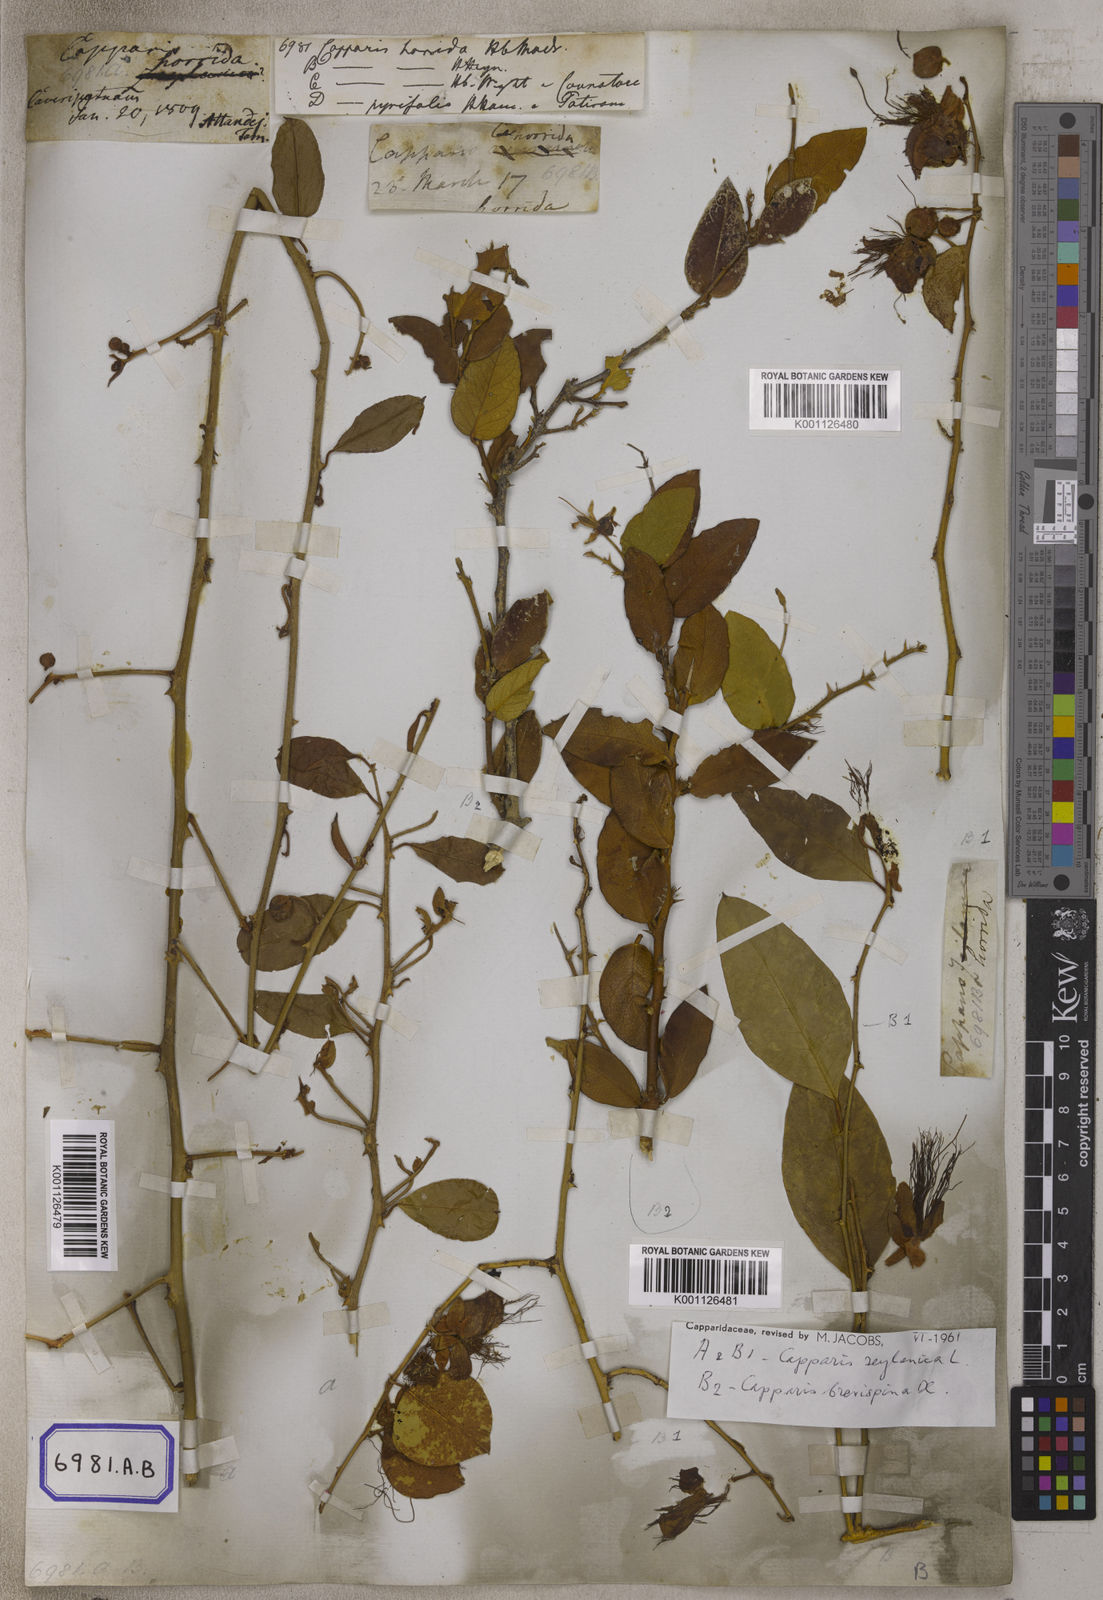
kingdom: Plantae
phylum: Tracheophyta
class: Magnoliopsida
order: Brassicales
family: Capparaceae
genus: Capparis
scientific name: Capparis zeylanica
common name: Ceylon caper
